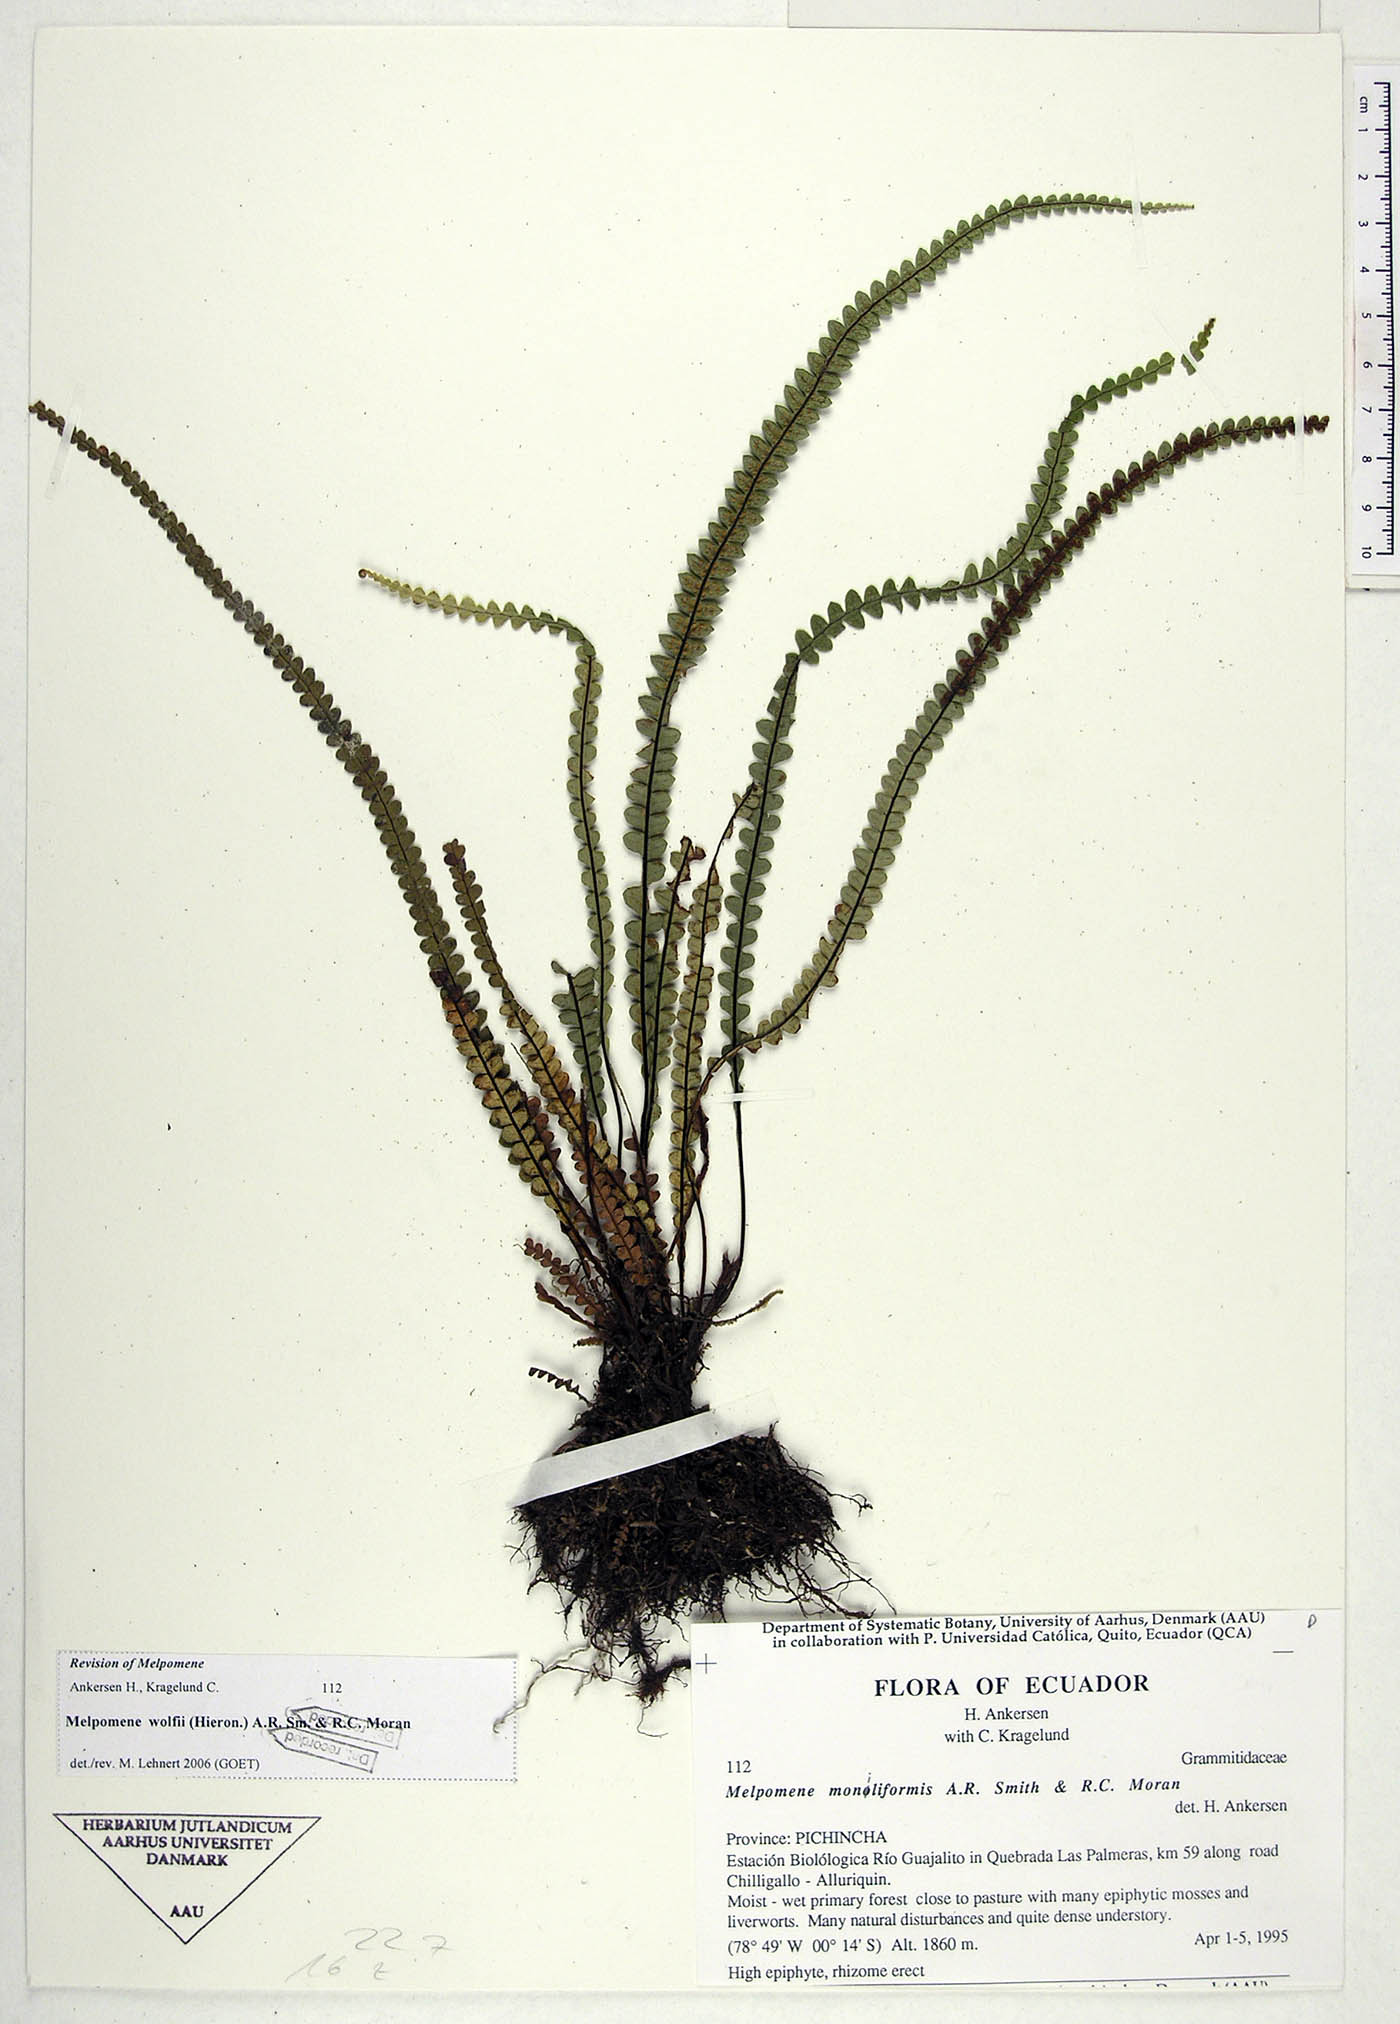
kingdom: Plantae
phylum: Tracheophyta
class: Polypodiopsida
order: Polypodiales
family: Polypodiaceae
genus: Melpomene
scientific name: Melpomene wolfii
